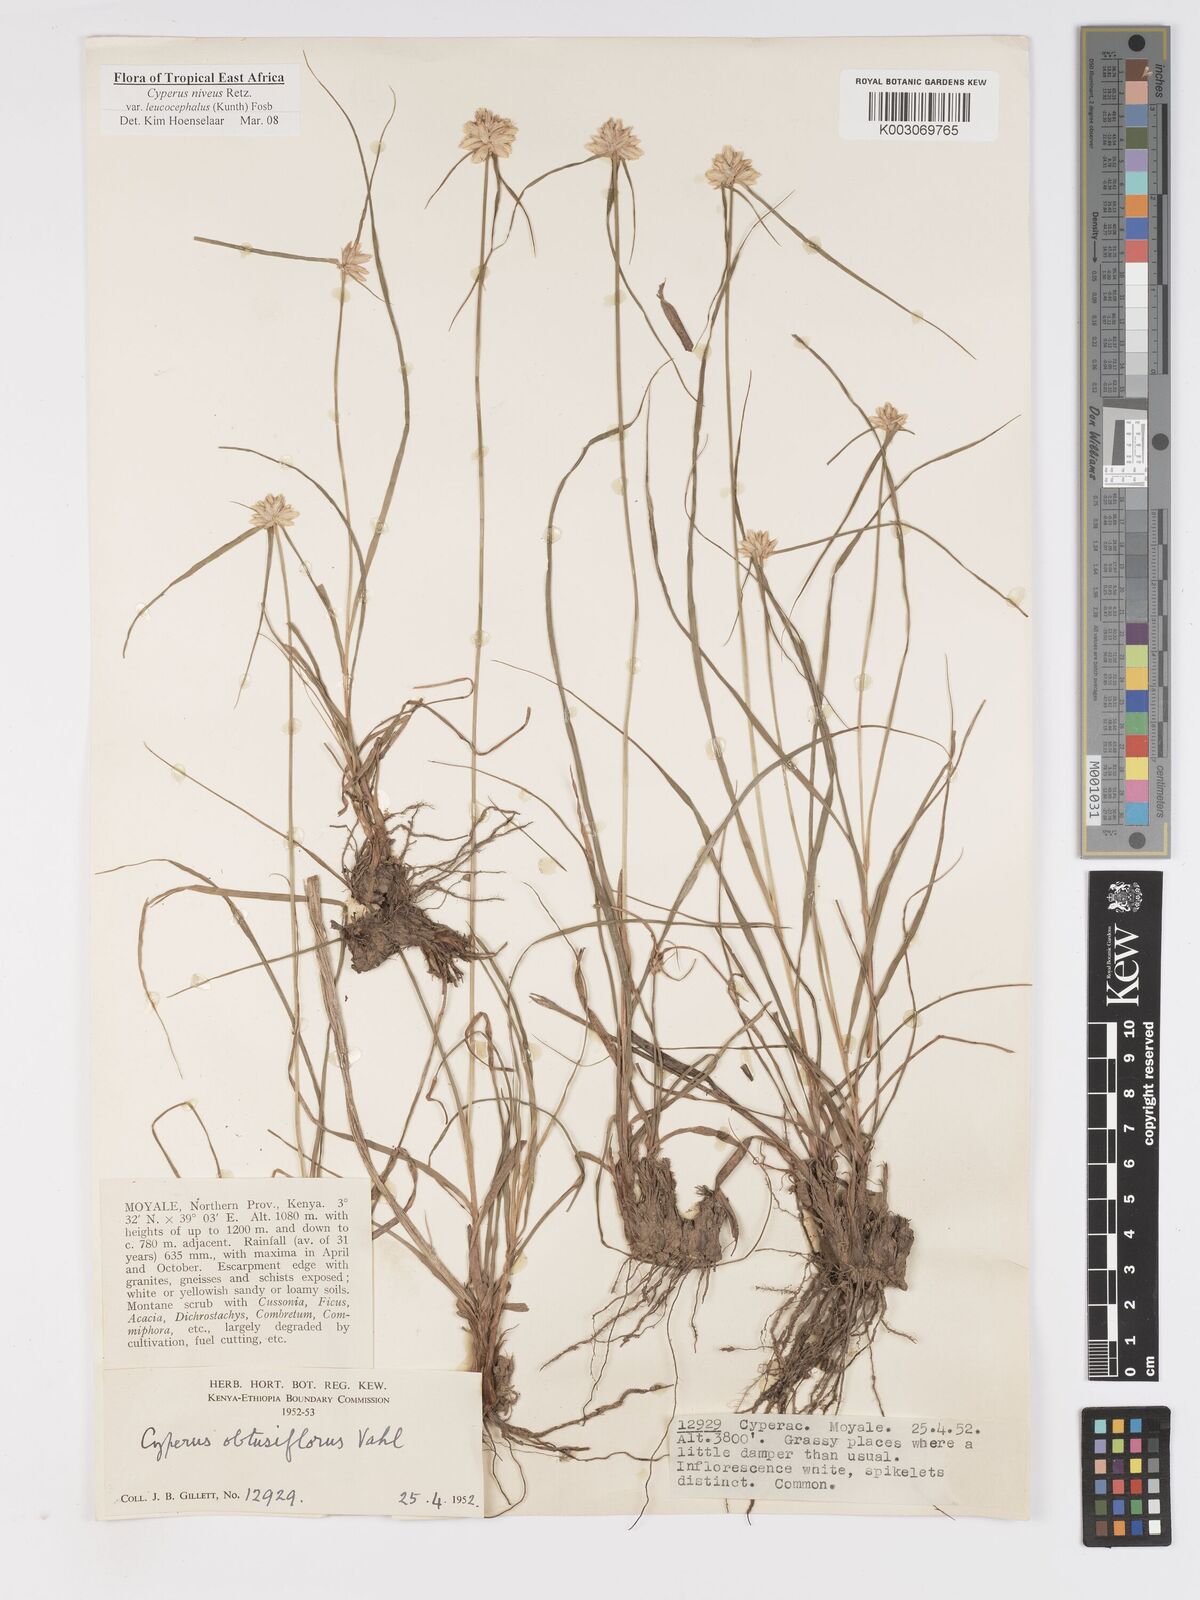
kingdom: Plantae
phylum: Tracheophyta
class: Liliopsida
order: Poales
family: Cyperaceae
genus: Cyperus
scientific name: Cyperus niveus
